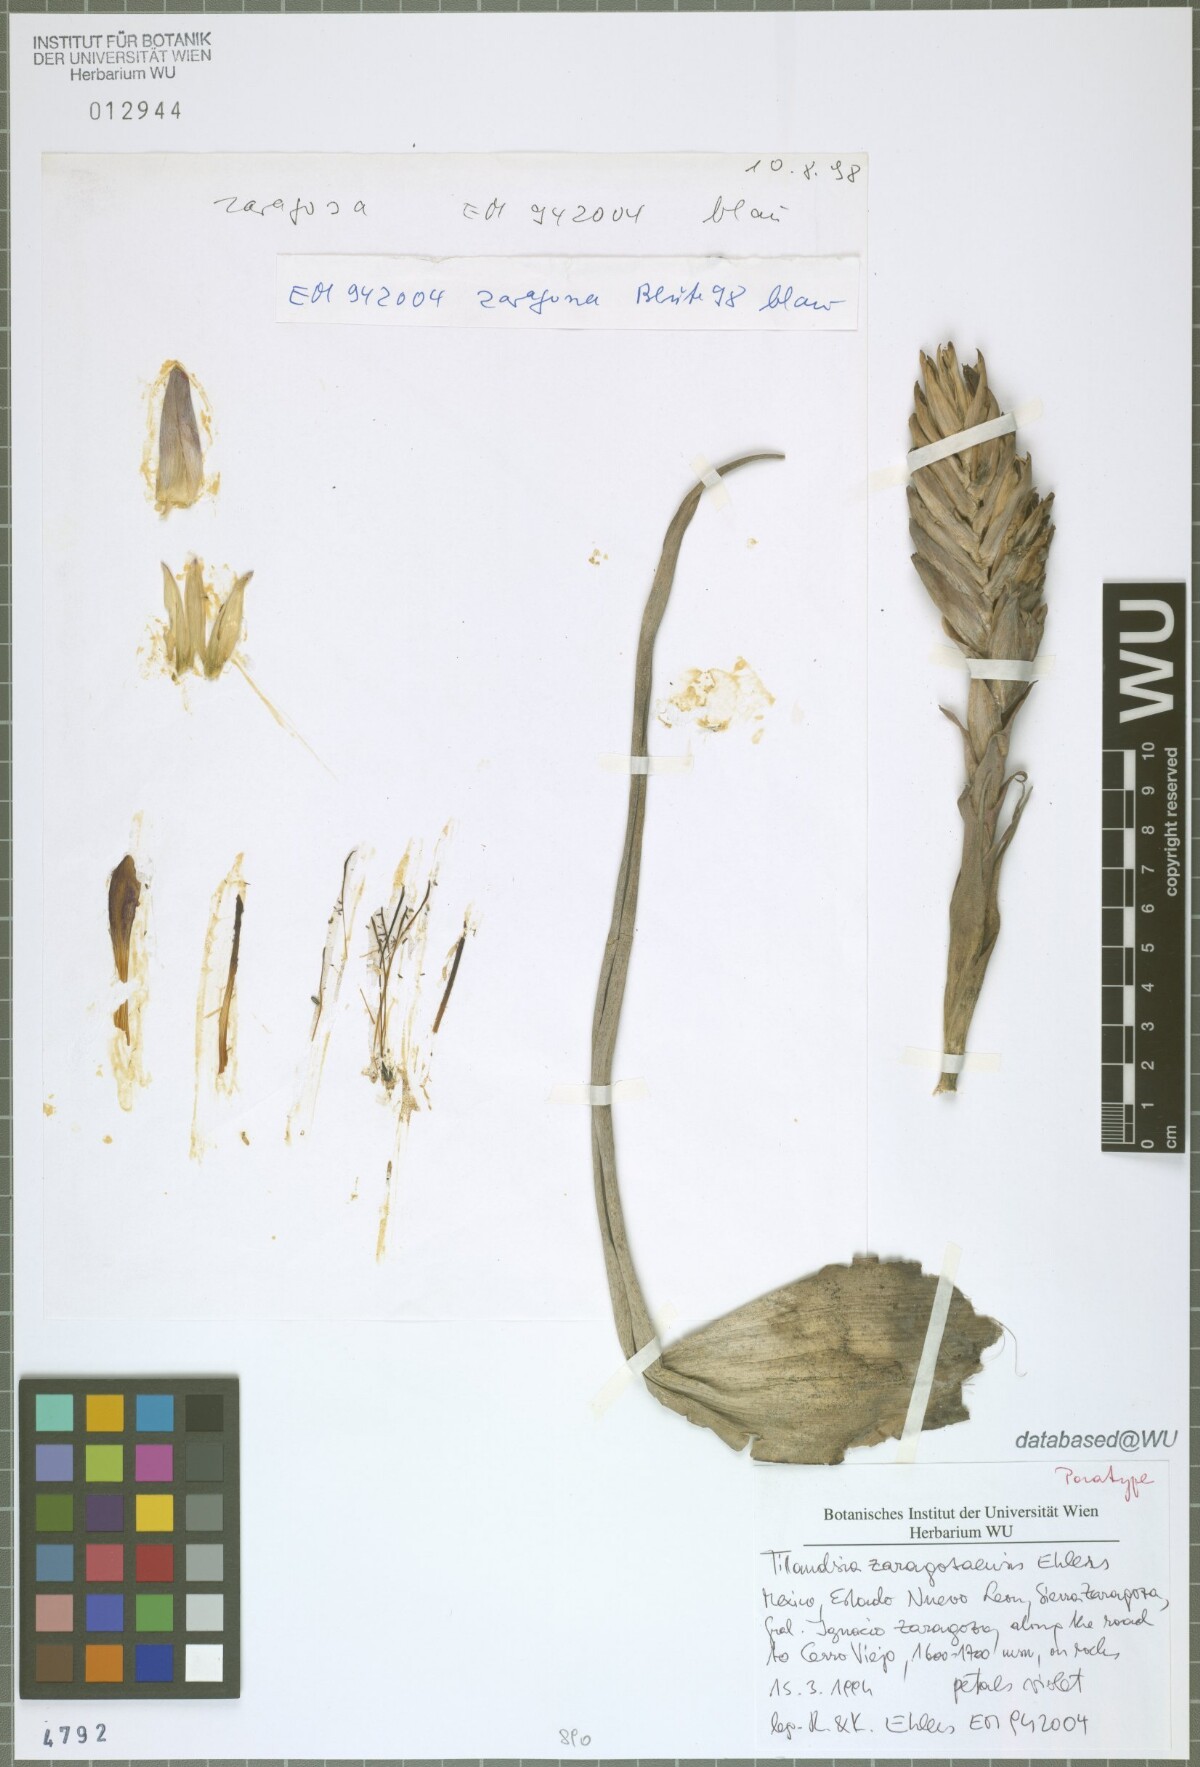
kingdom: Plantae
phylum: Tracheophyta
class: Liliopsida
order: Poales
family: Bromeliaceae
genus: Tillandsia
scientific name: Tillandsia zaragozaensis
